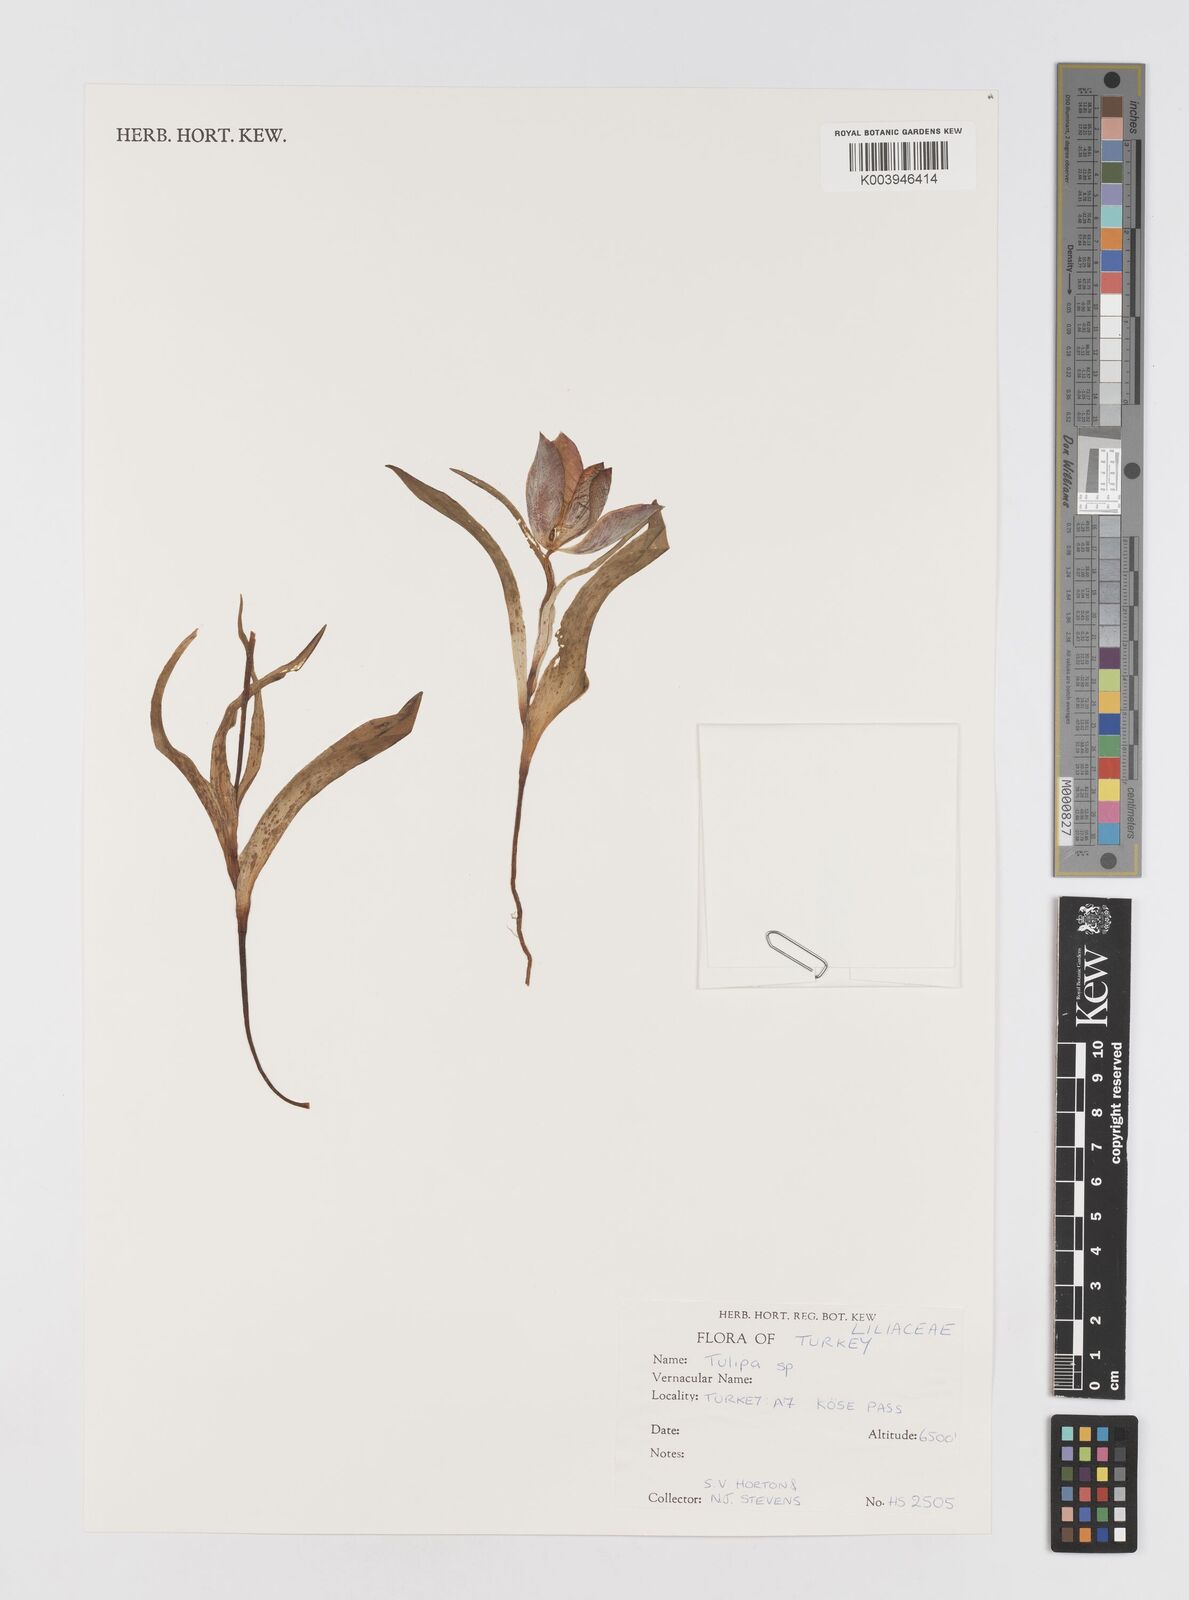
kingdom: Plantae
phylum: Tracheophyta
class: Liliopsida
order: Liliales
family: Liliaceae
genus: Tulipa
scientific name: Tulipa
